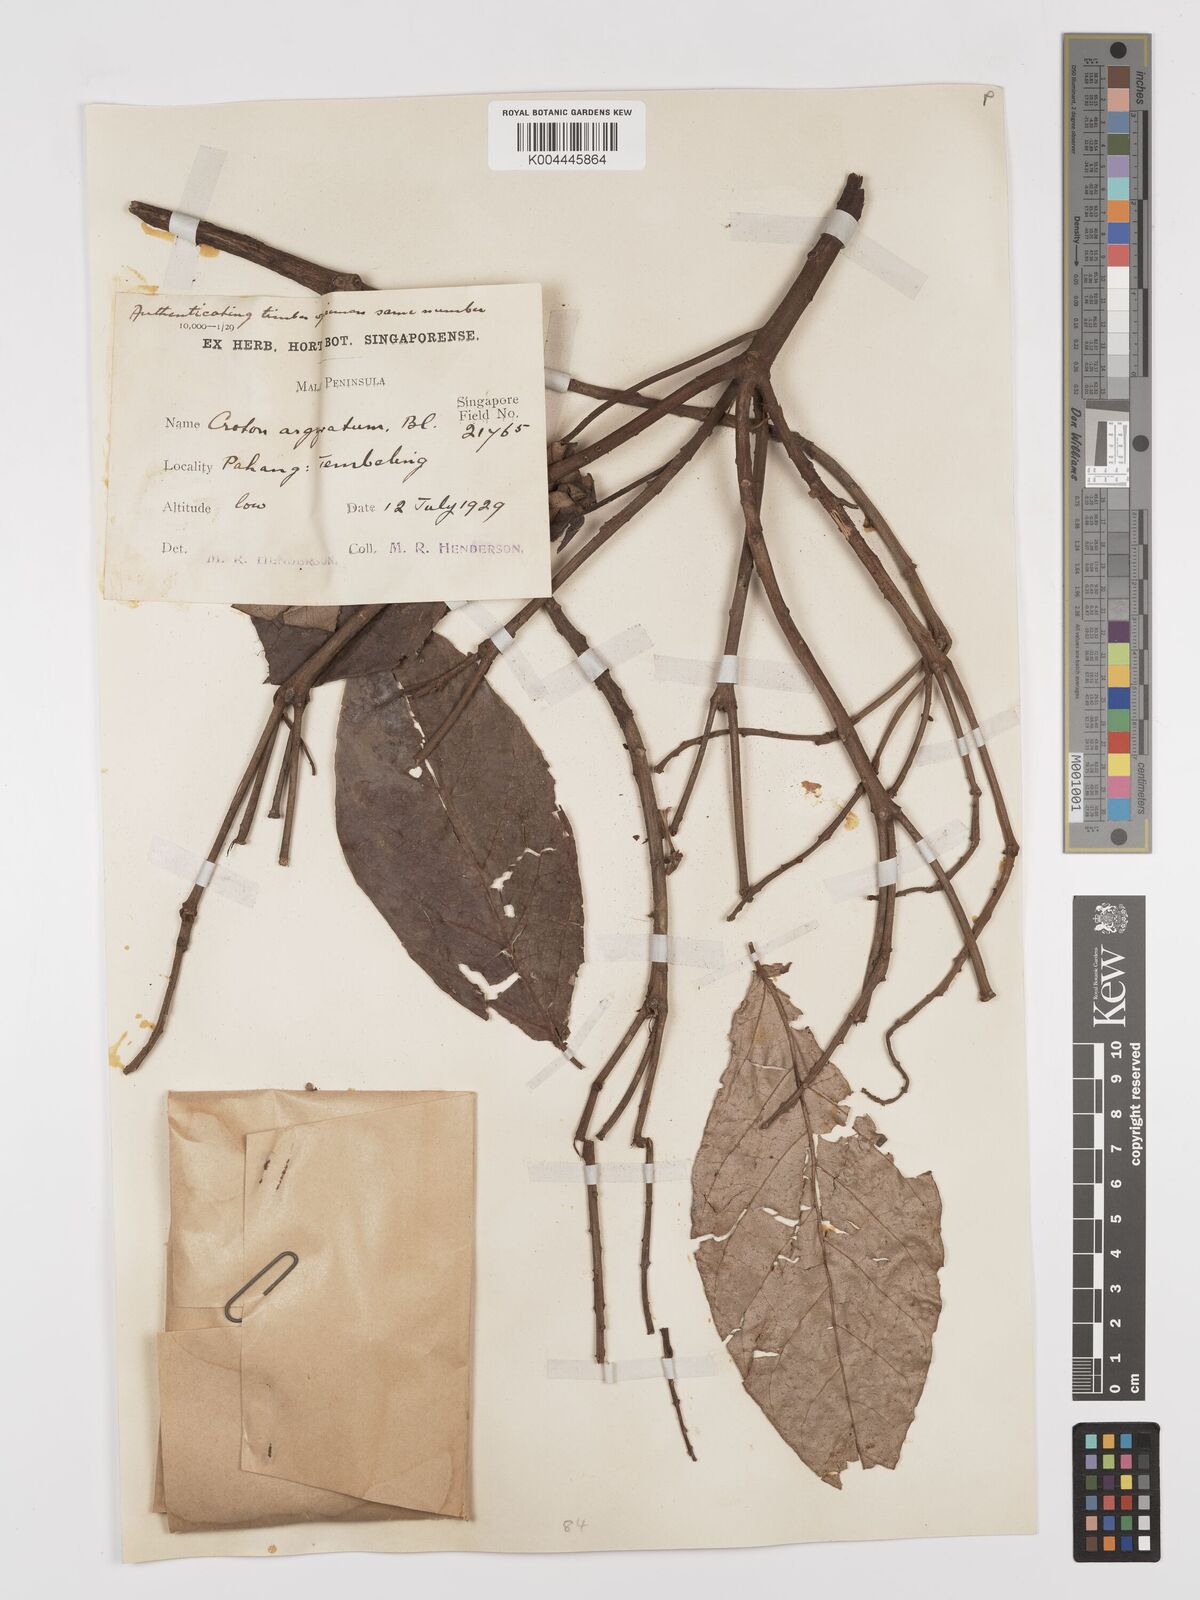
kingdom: Plantae
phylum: Tracheophyta
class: Magnoliopsida
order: Malpighiales
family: Euphorbiaceae
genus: Croton
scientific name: Croton argyratus
